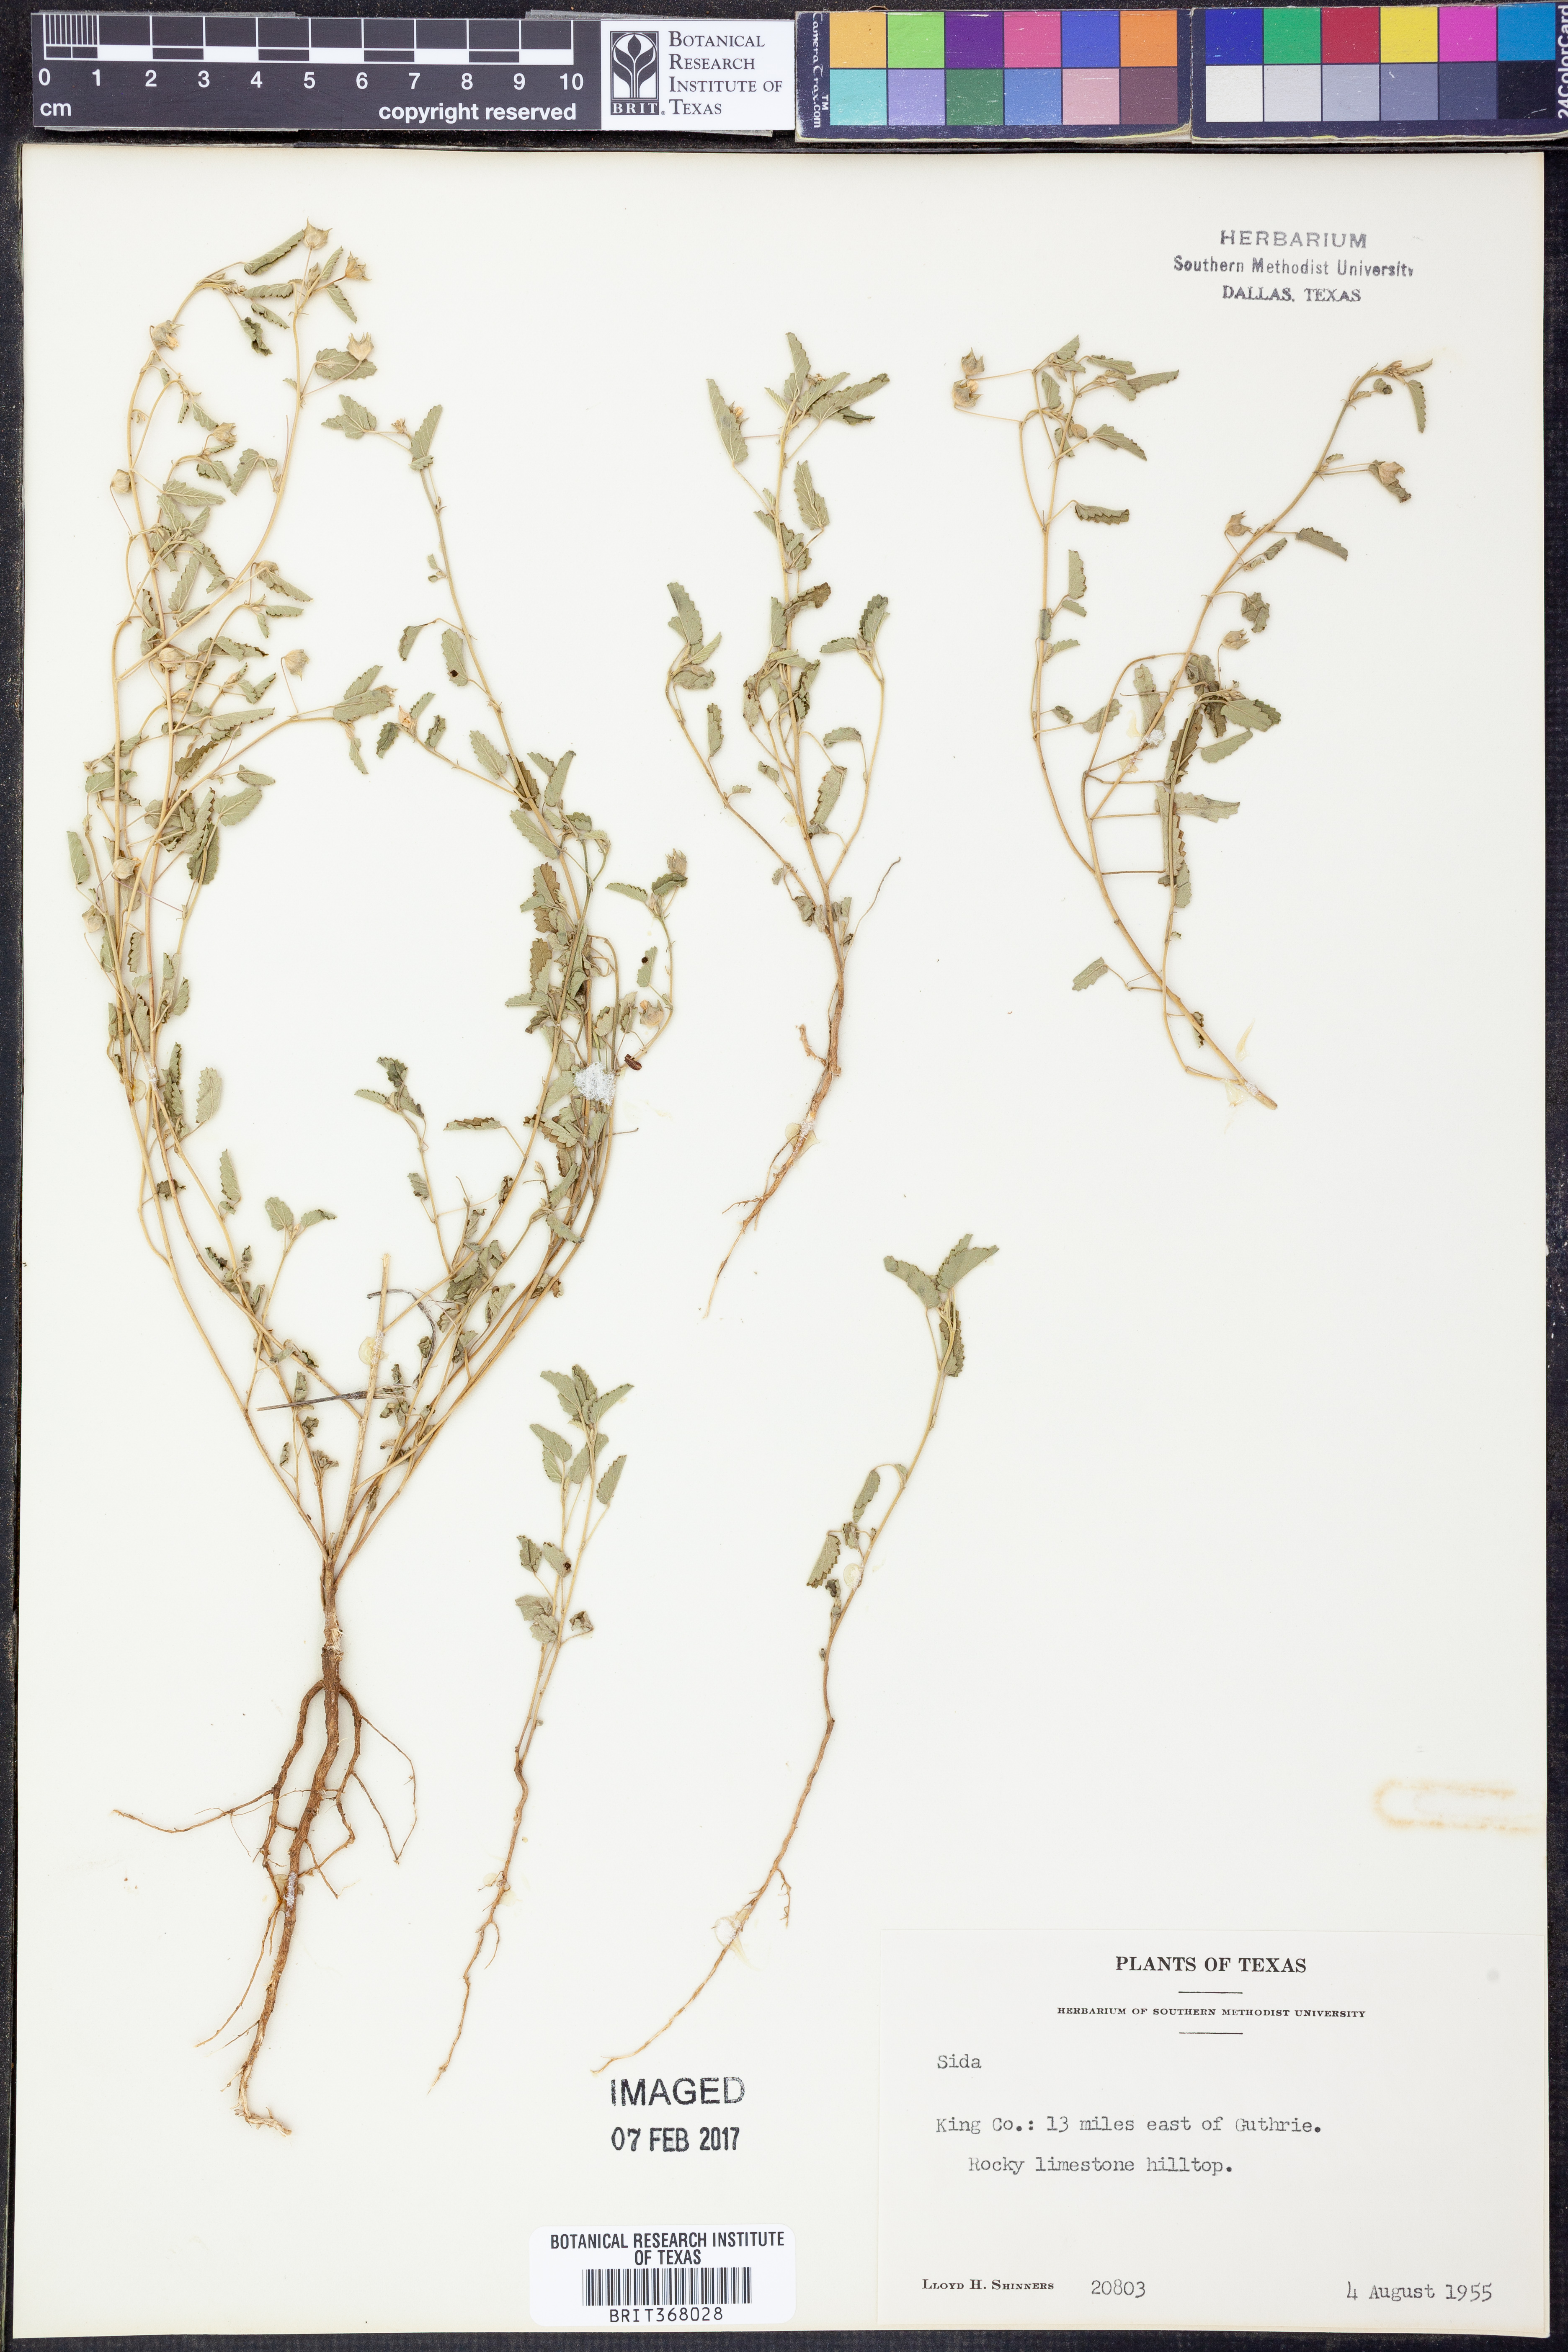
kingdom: Plantae
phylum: Tracheophyta
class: Magnoliopsida
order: Malvales
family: Malvaceae
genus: Sida
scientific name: Sida
